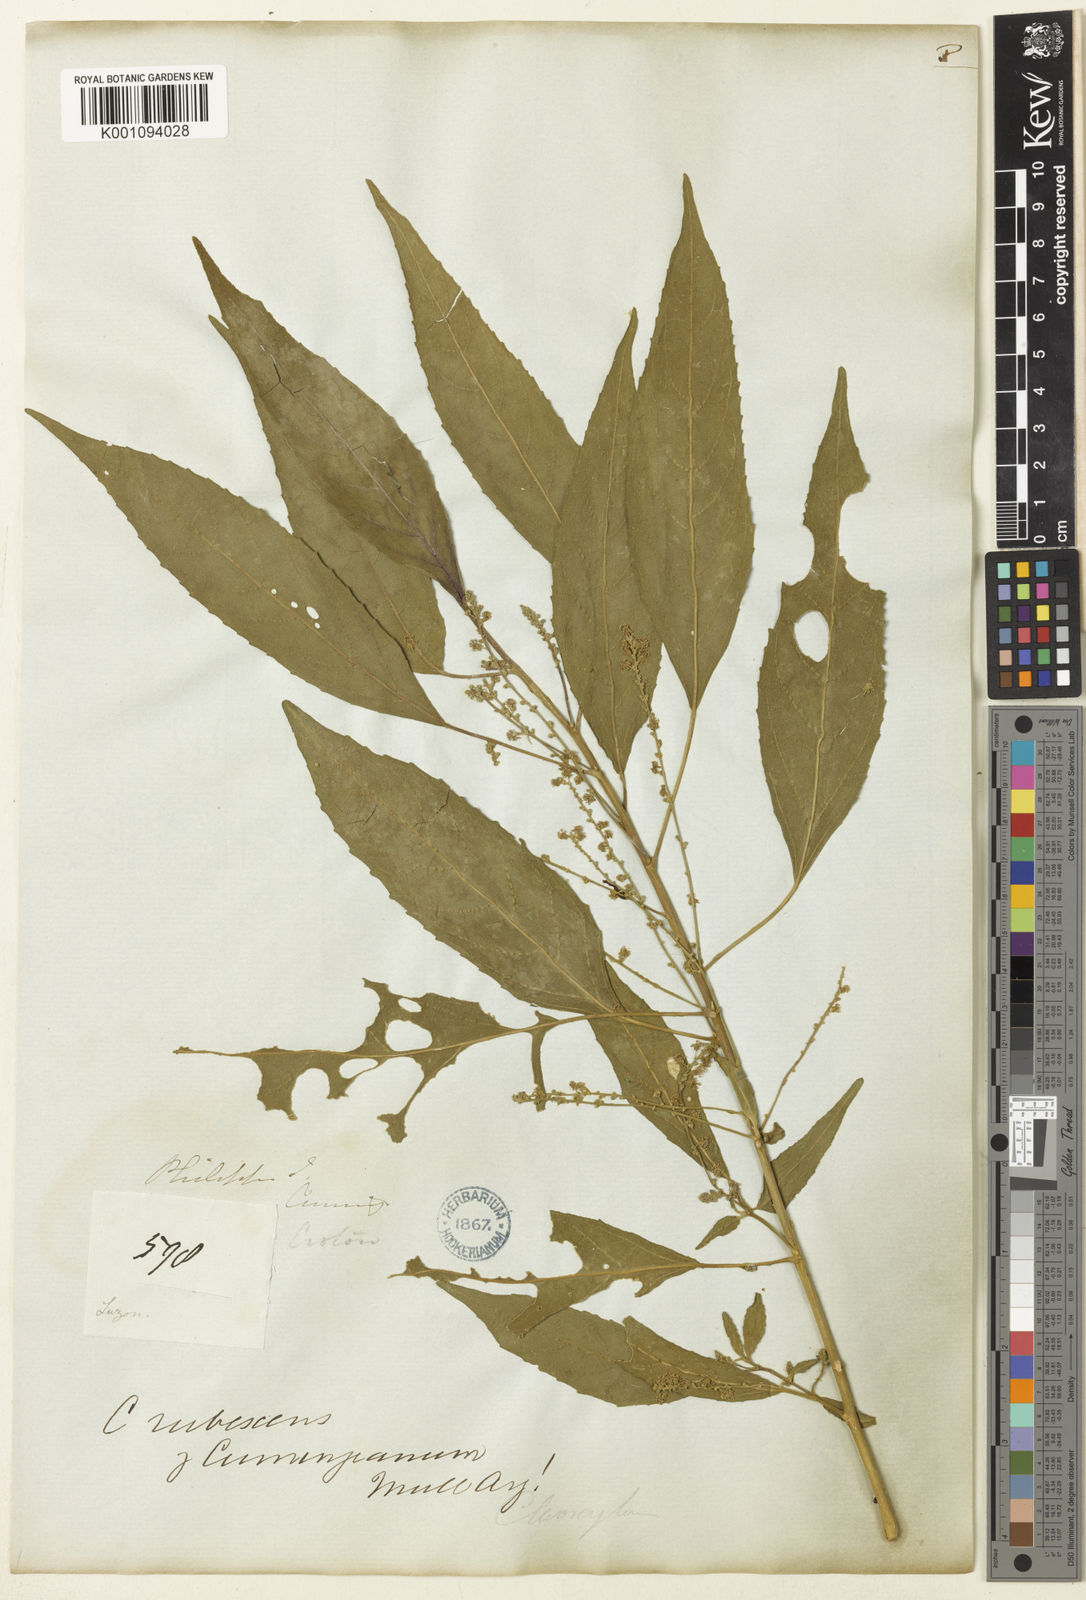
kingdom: Plantae
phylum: Tracheophyta
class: Magnoliopsida
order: Malpighiales
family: Euphorbiaceae
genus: Claoxylon
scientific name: Claoxylon subviride
